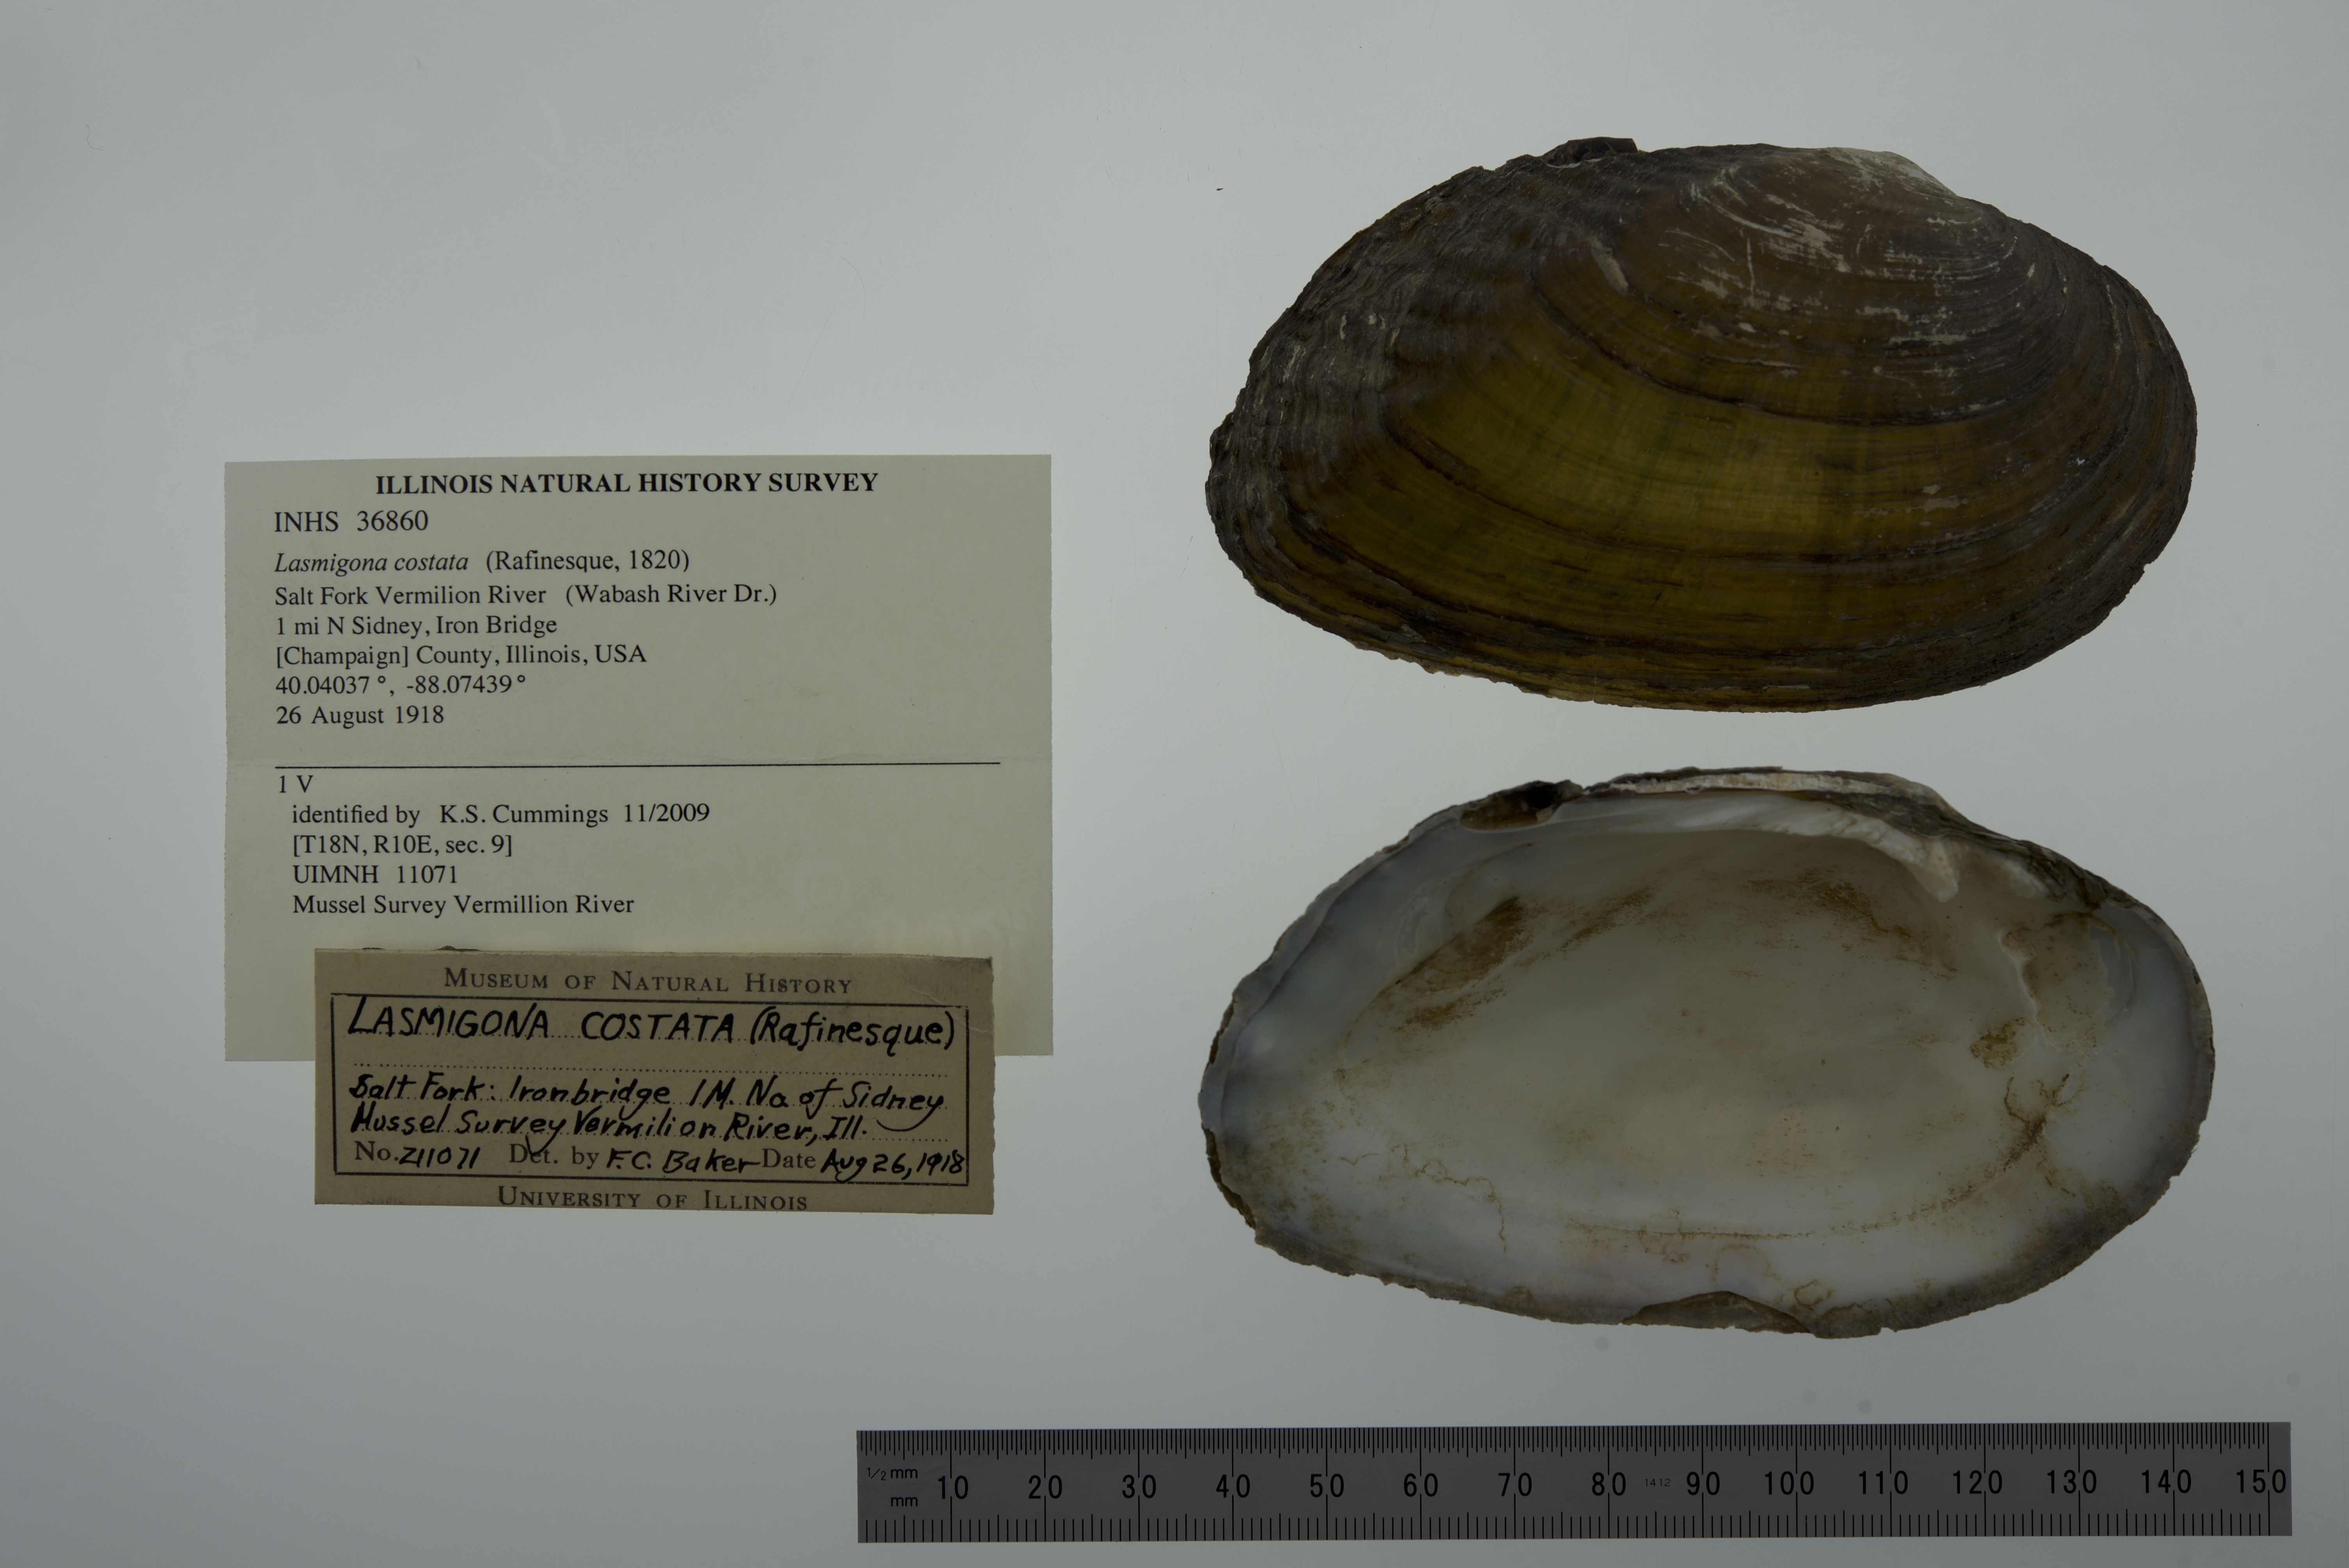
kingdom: Animalia
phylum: Mollusca
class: Bivalvia
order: Unionida
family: Unionidae
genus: Lasmigona
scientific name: Lasmigona costata
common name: Flutedshell
